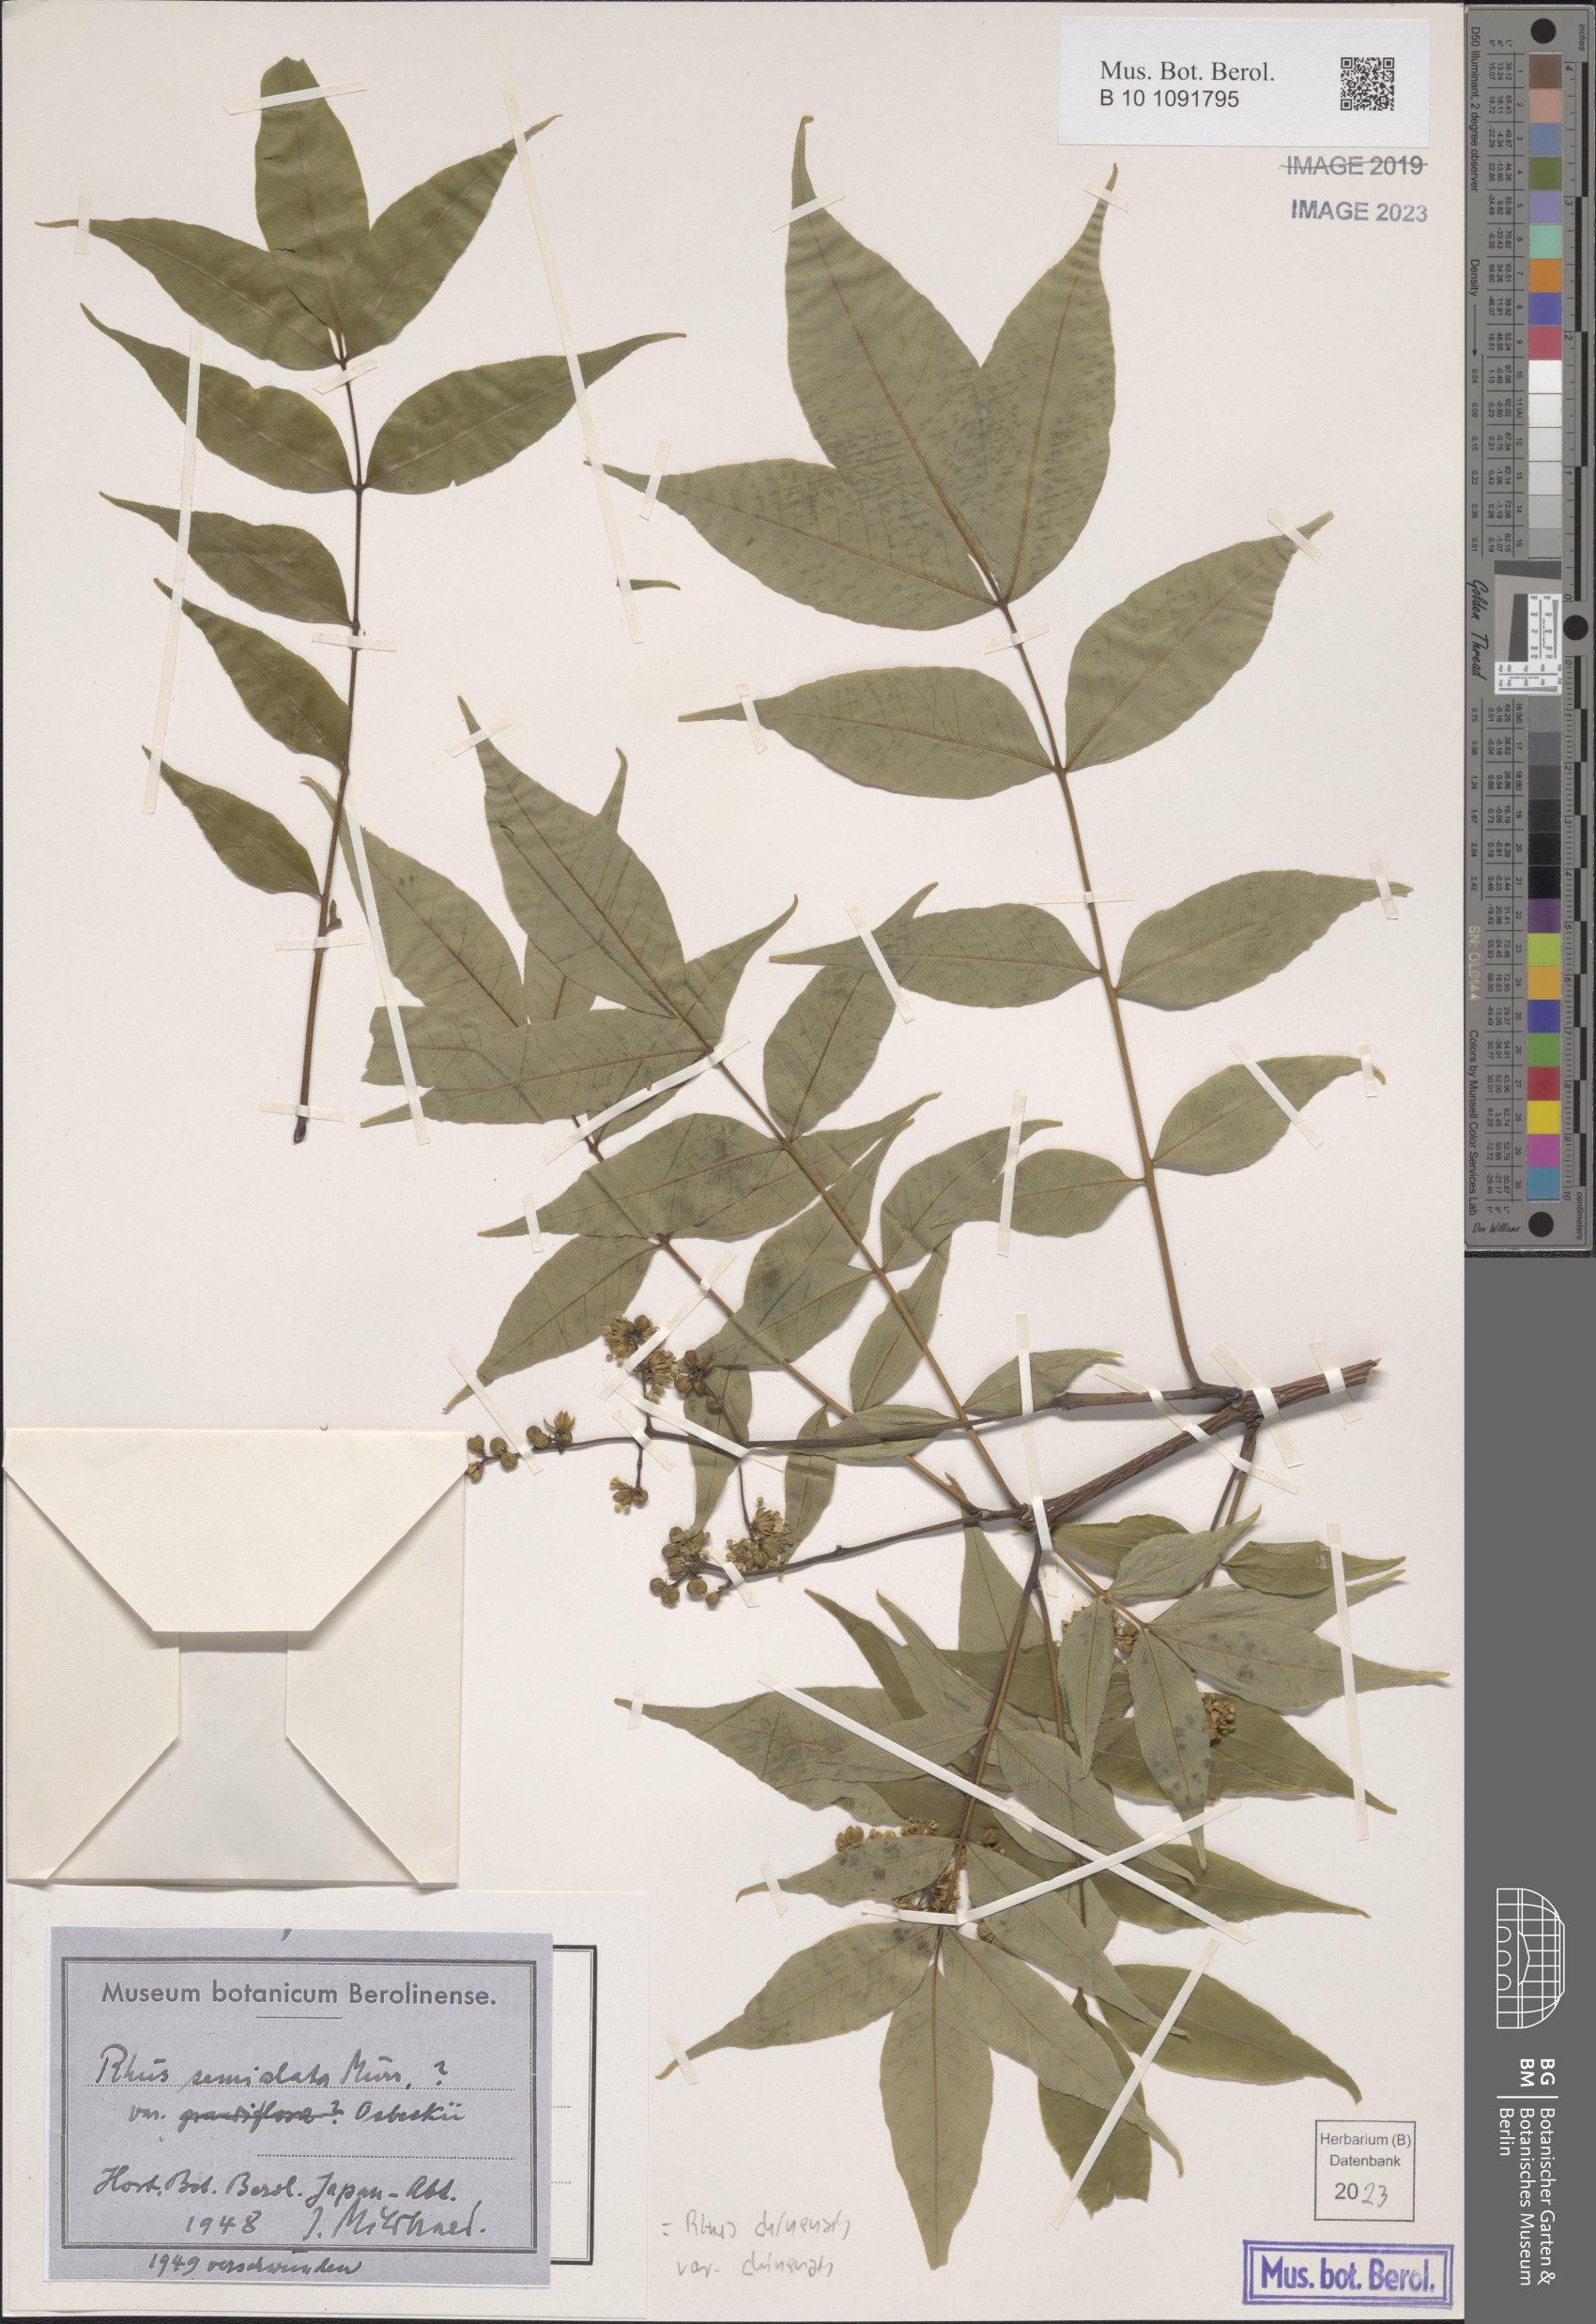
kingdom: Plantae
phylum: Tracheophyta
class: Magnoliopsida
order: Sapindales
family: Anacardiaceae
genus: Rhus
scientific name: Rhus chinensis
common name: Chinese gall
